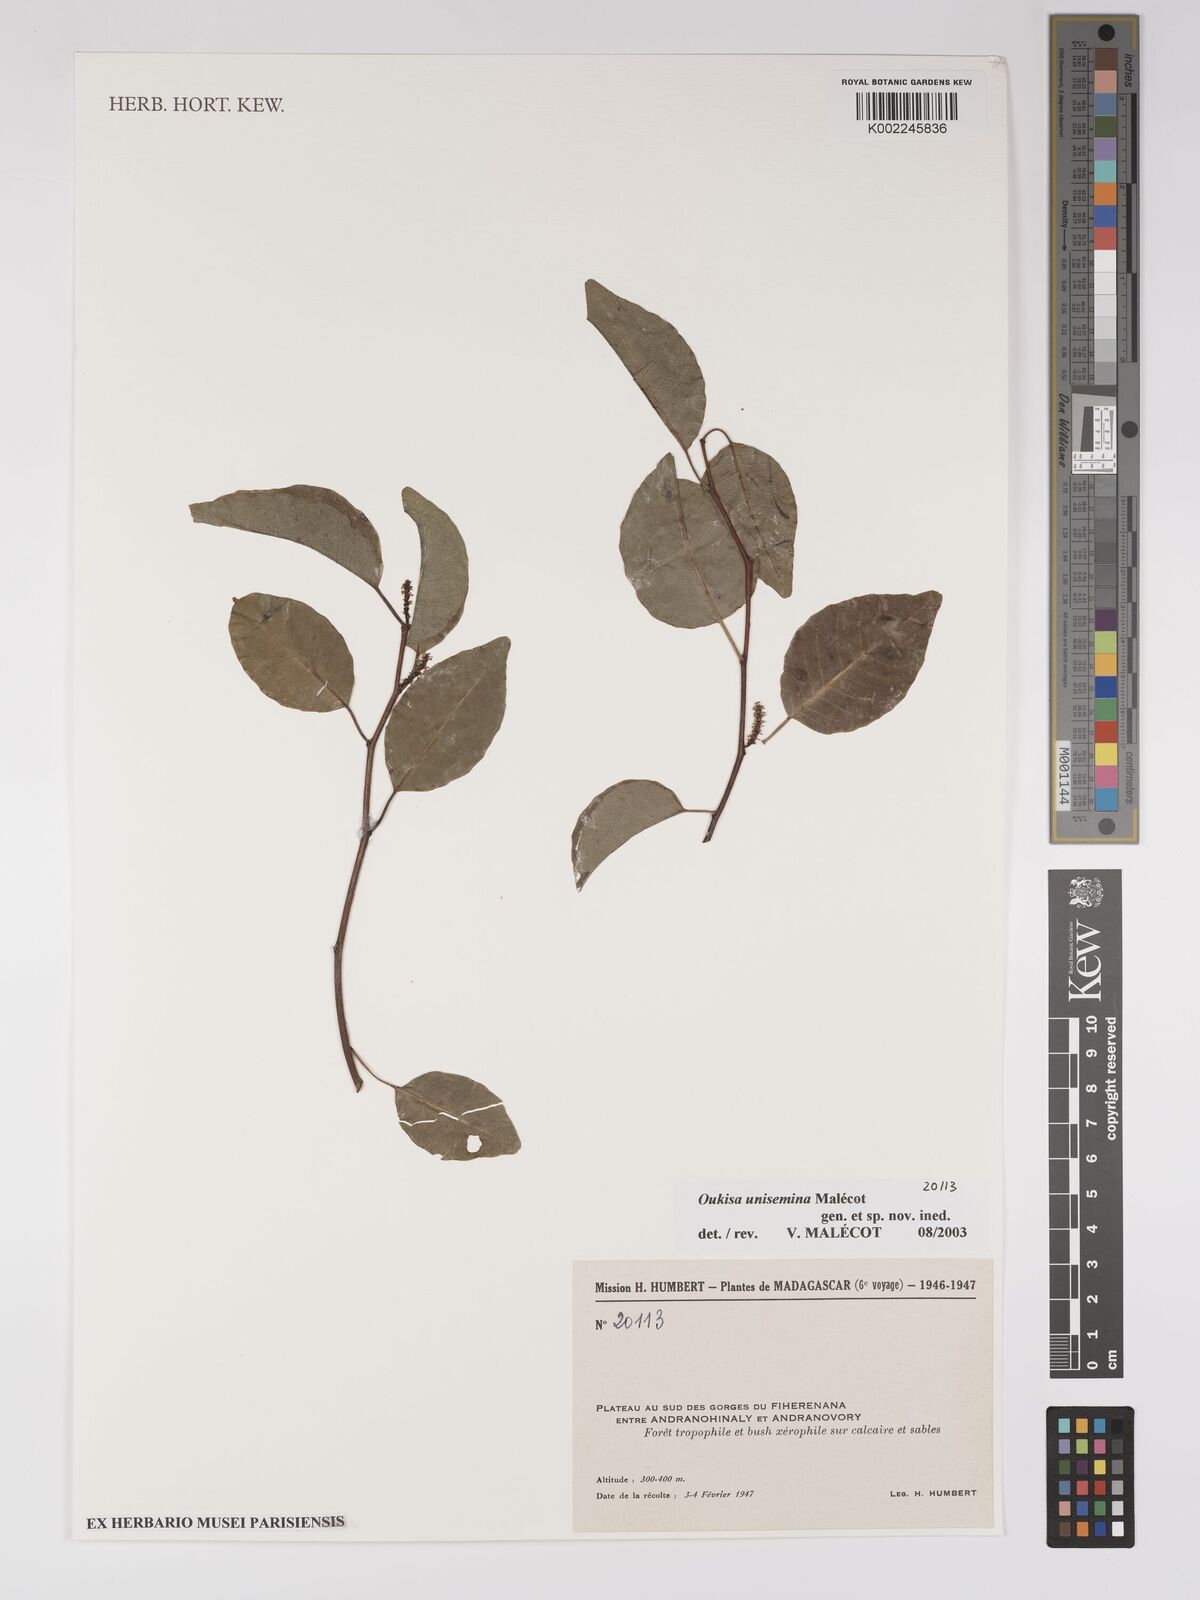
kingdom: Plantae
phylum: Tracheophyta
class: Magnoliopsida
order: Malpighiales
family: Euphorbiaceae
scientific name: Euphorbiaceae
